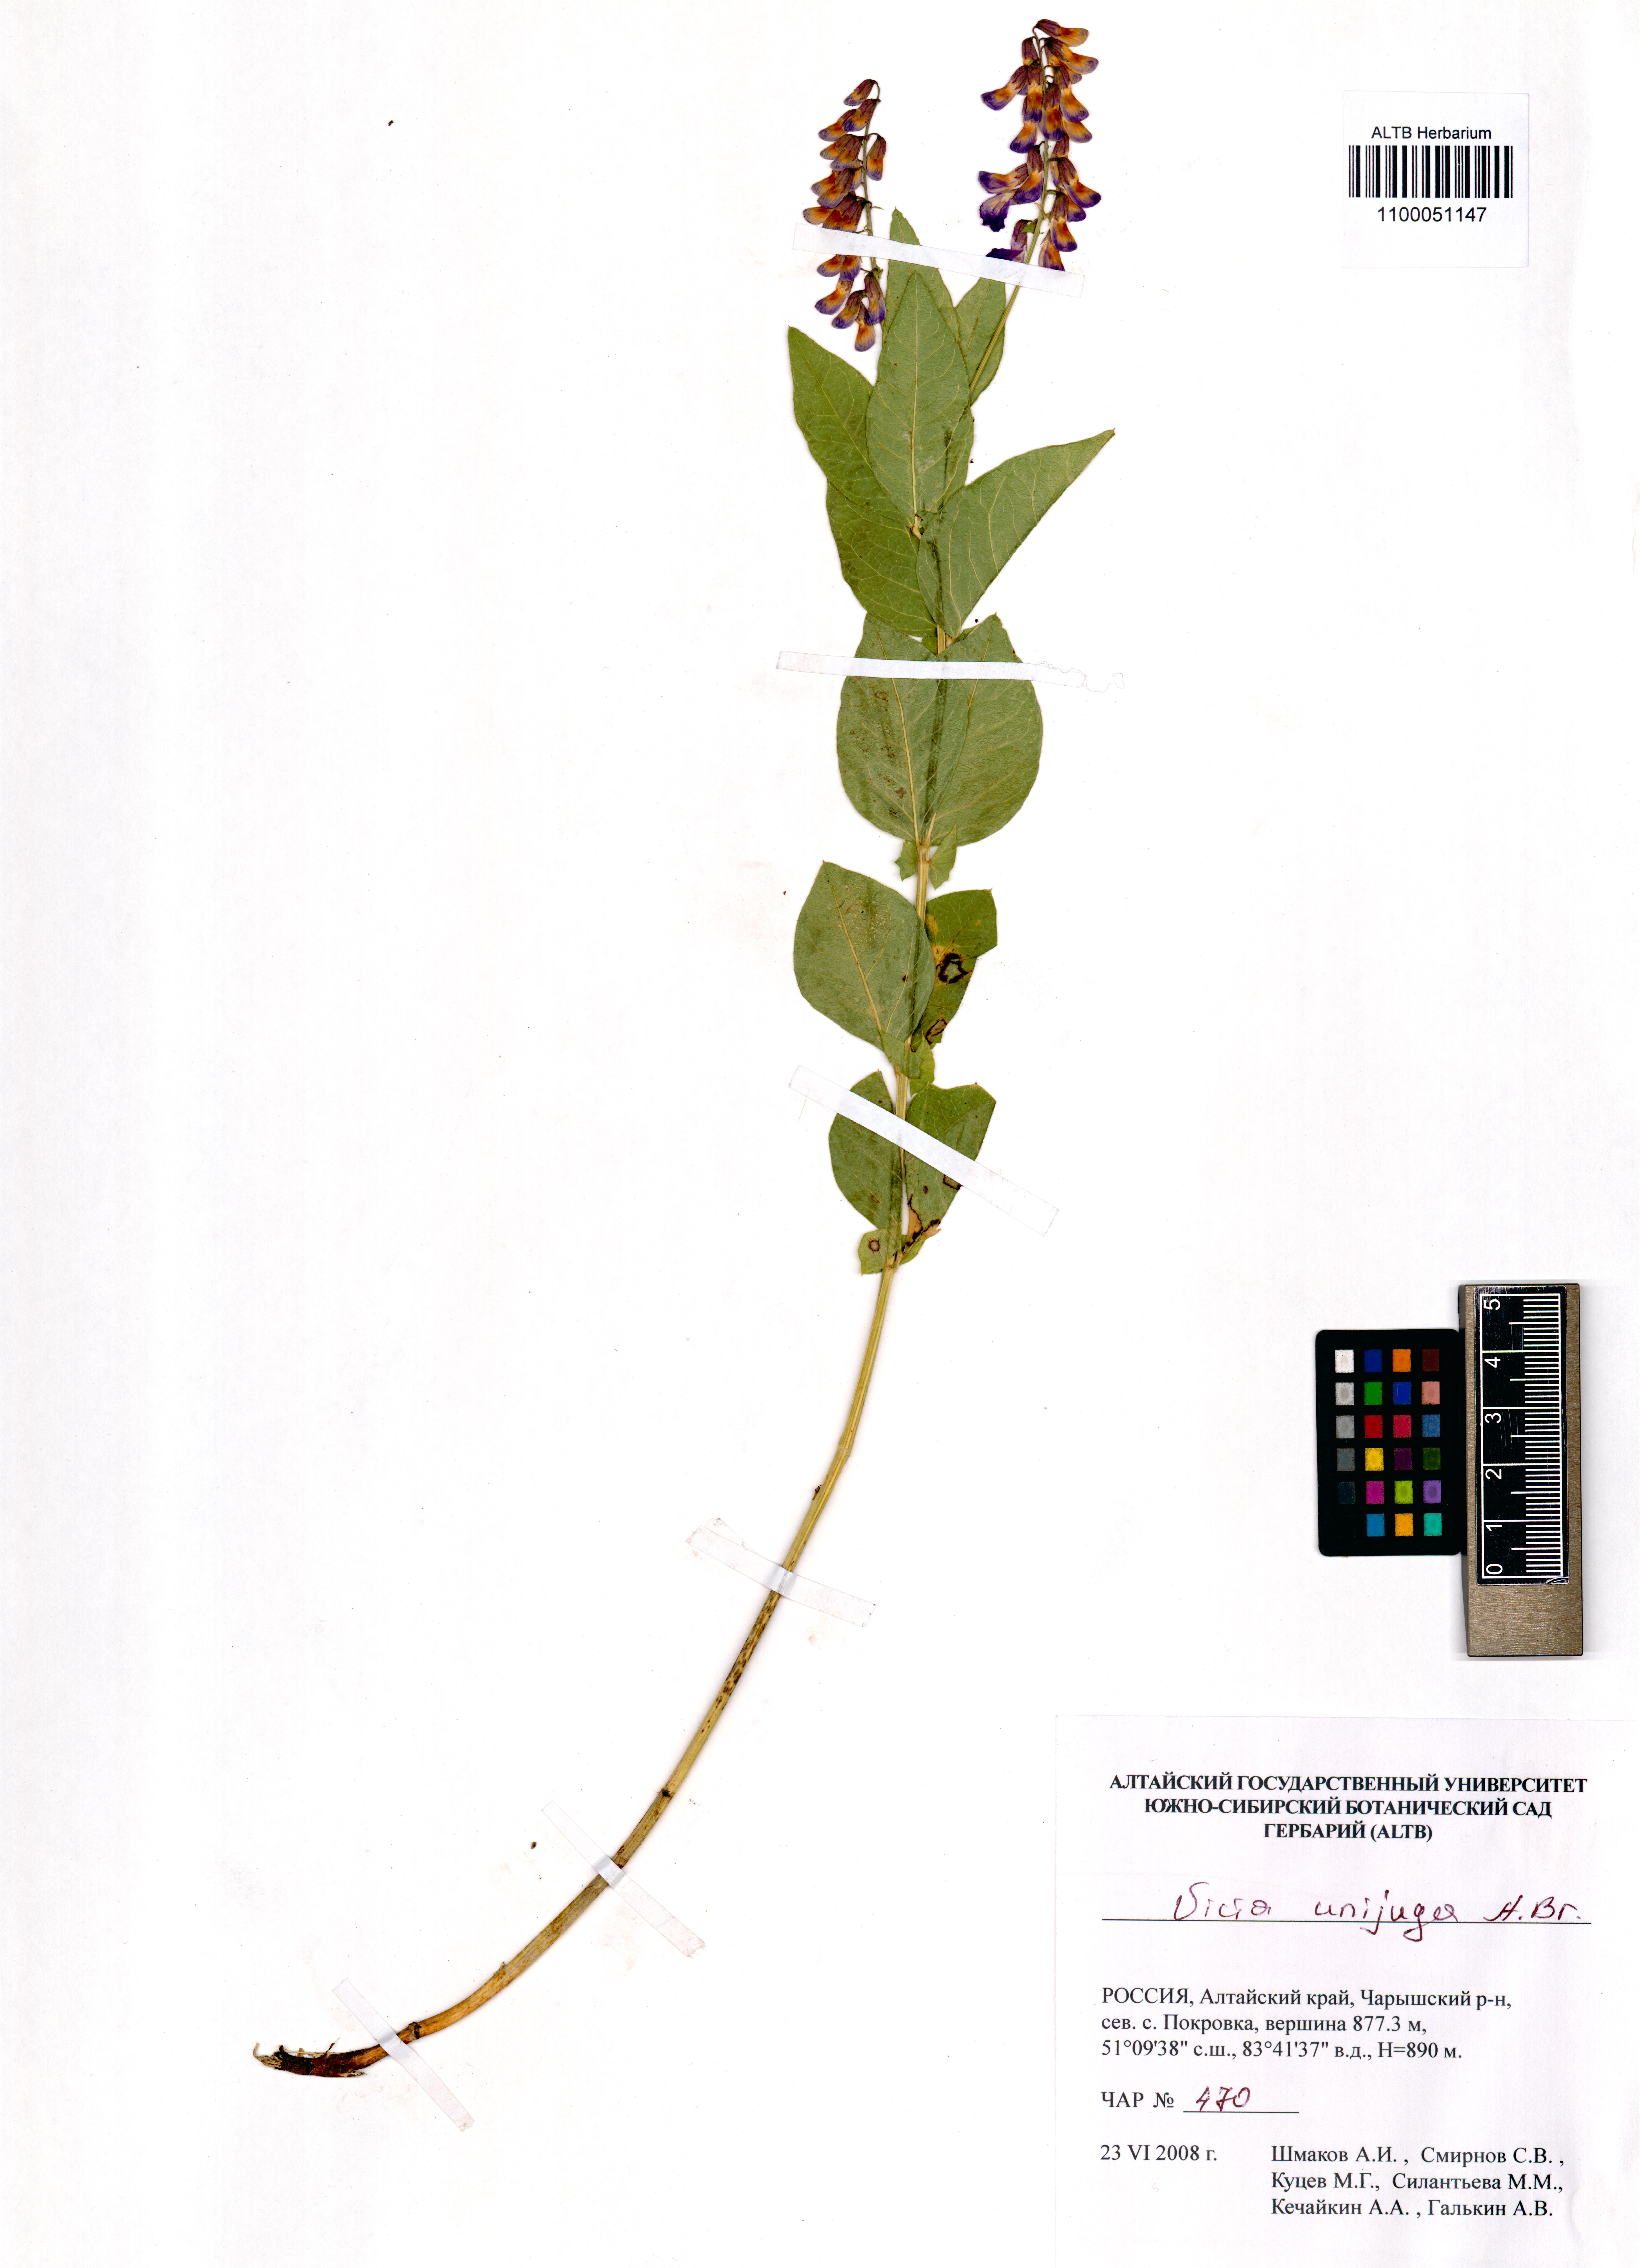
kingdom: Plantae
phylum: Tracheophyta
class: Magnoliopsida
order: Fabales
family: Fabaceae
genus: Vicia
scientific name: Vicia unijuga
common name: Two-leaf vetch
